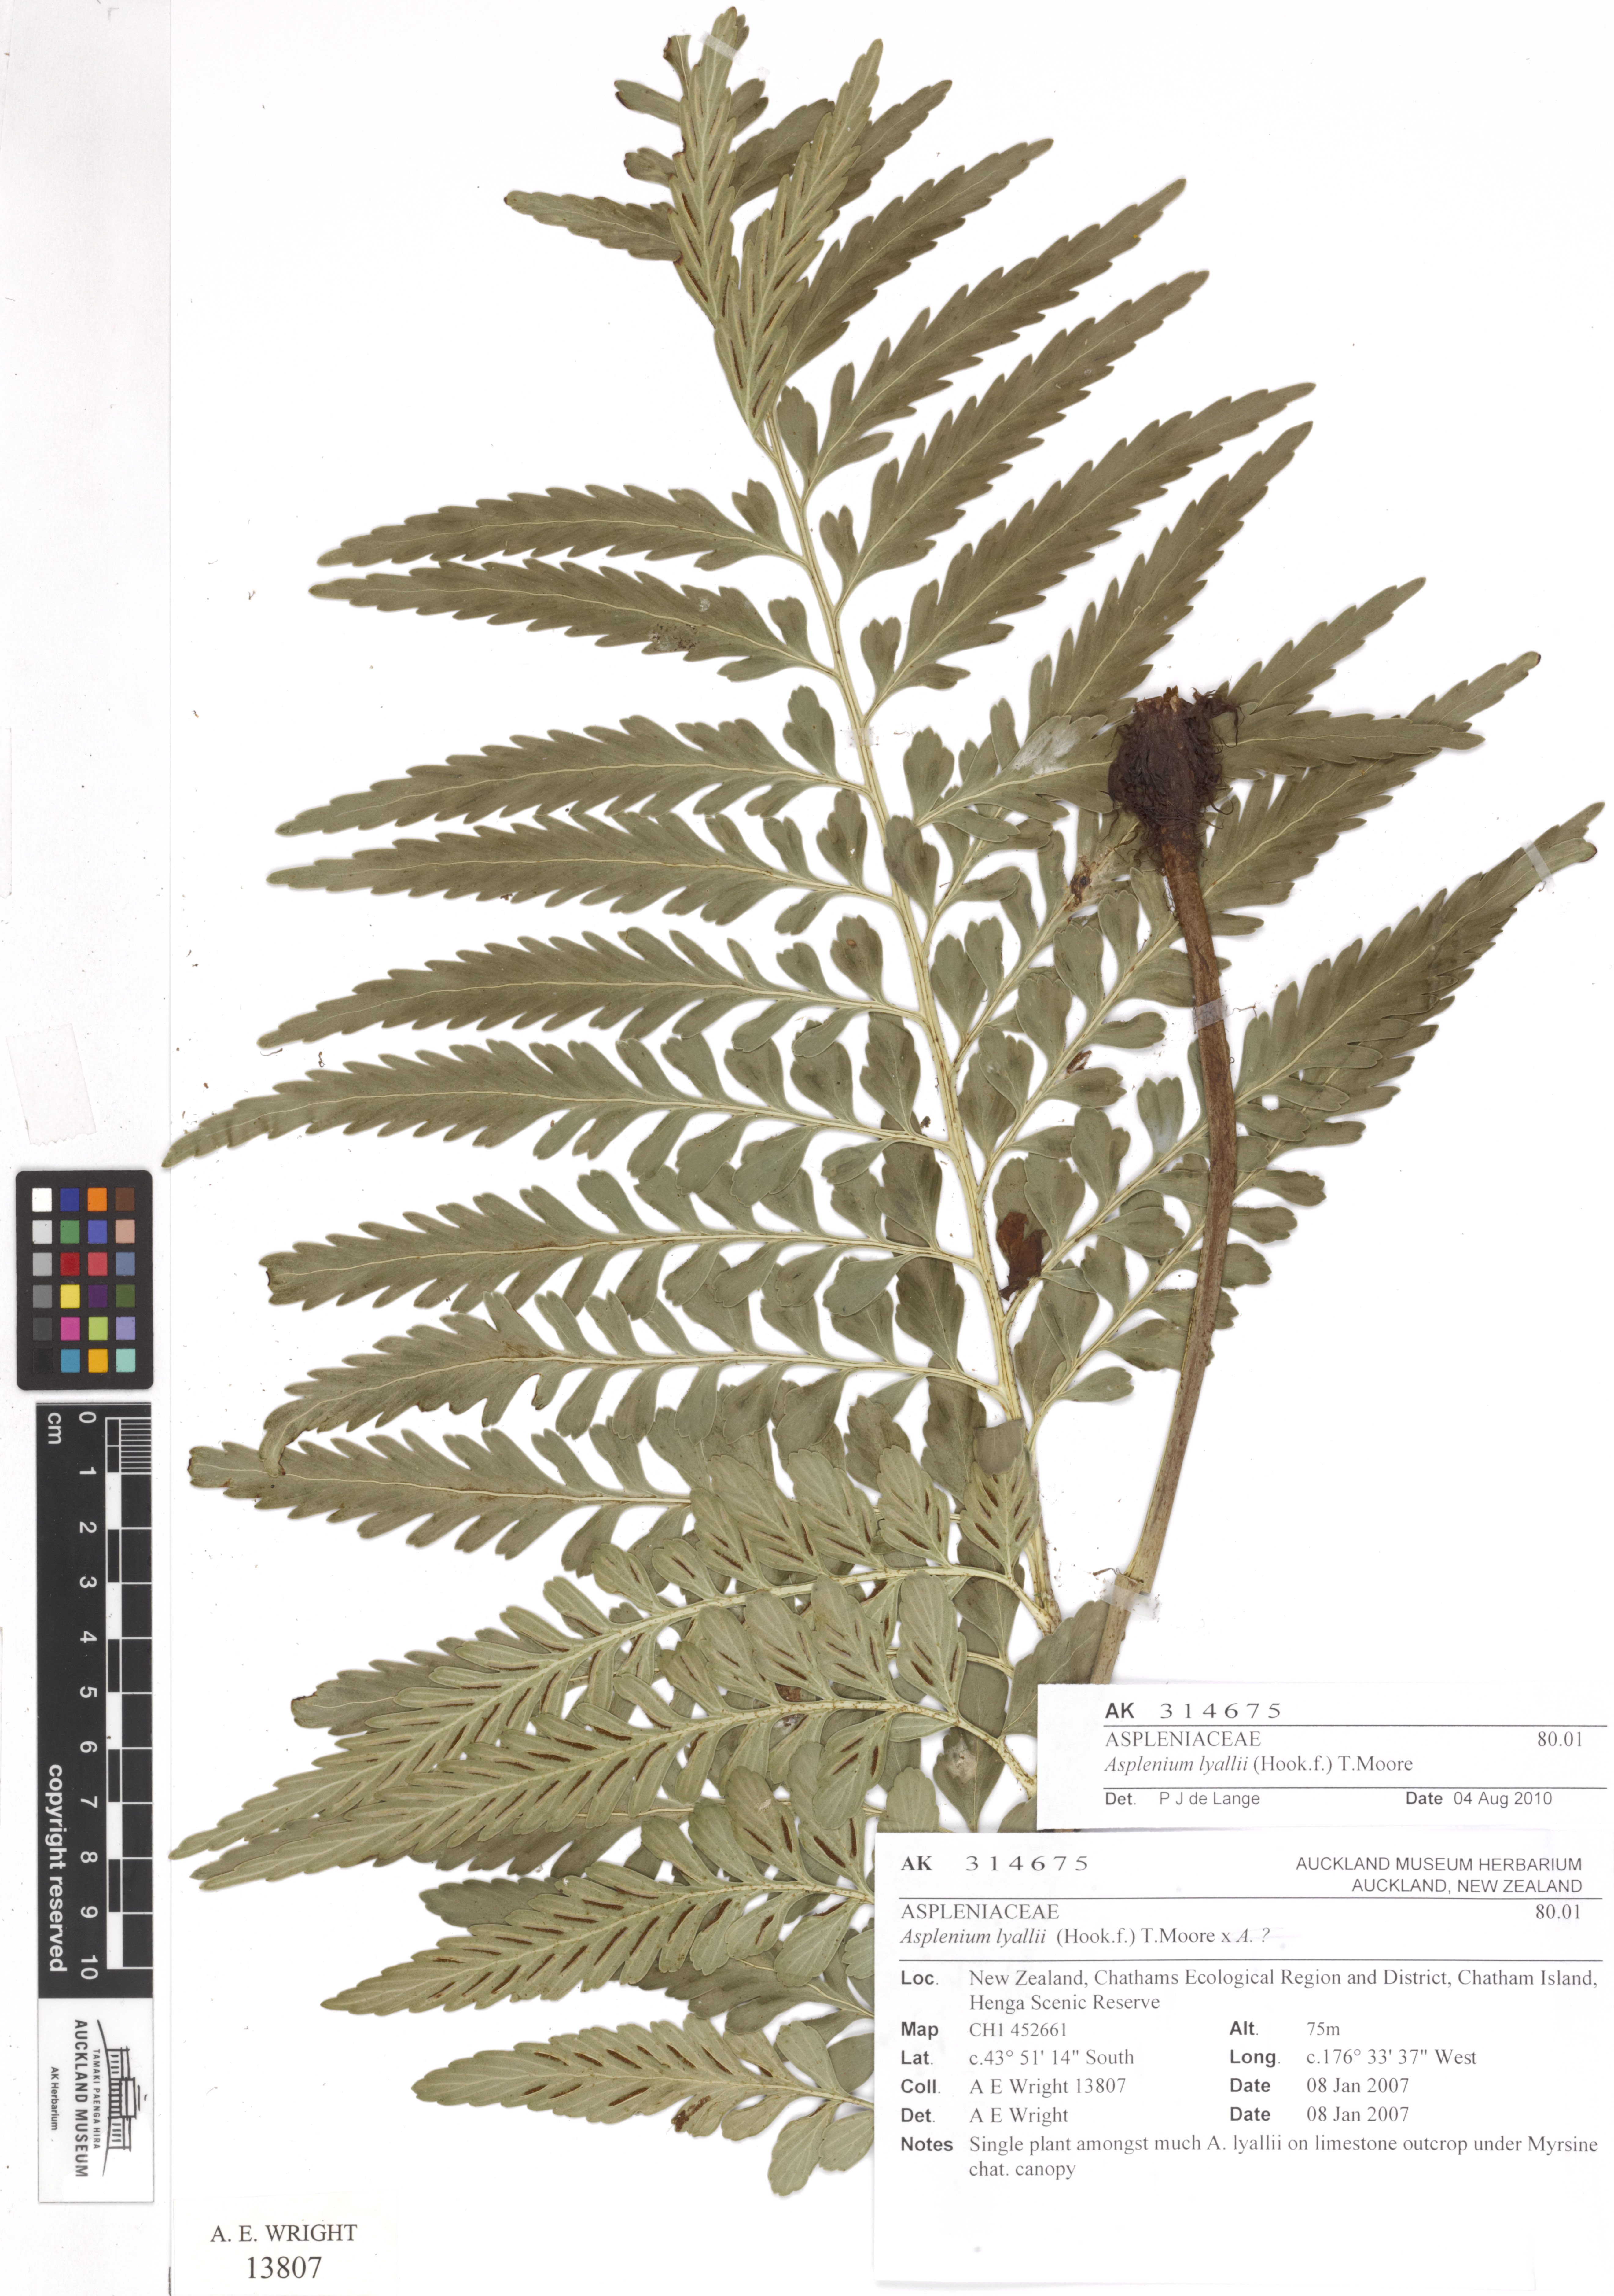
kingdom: Plantae
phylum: Tracheophyta
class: Polypodiopsida
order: Polypodiales
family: Aspleniaceae
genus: Asplenium
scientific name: Asplenium lyallii
